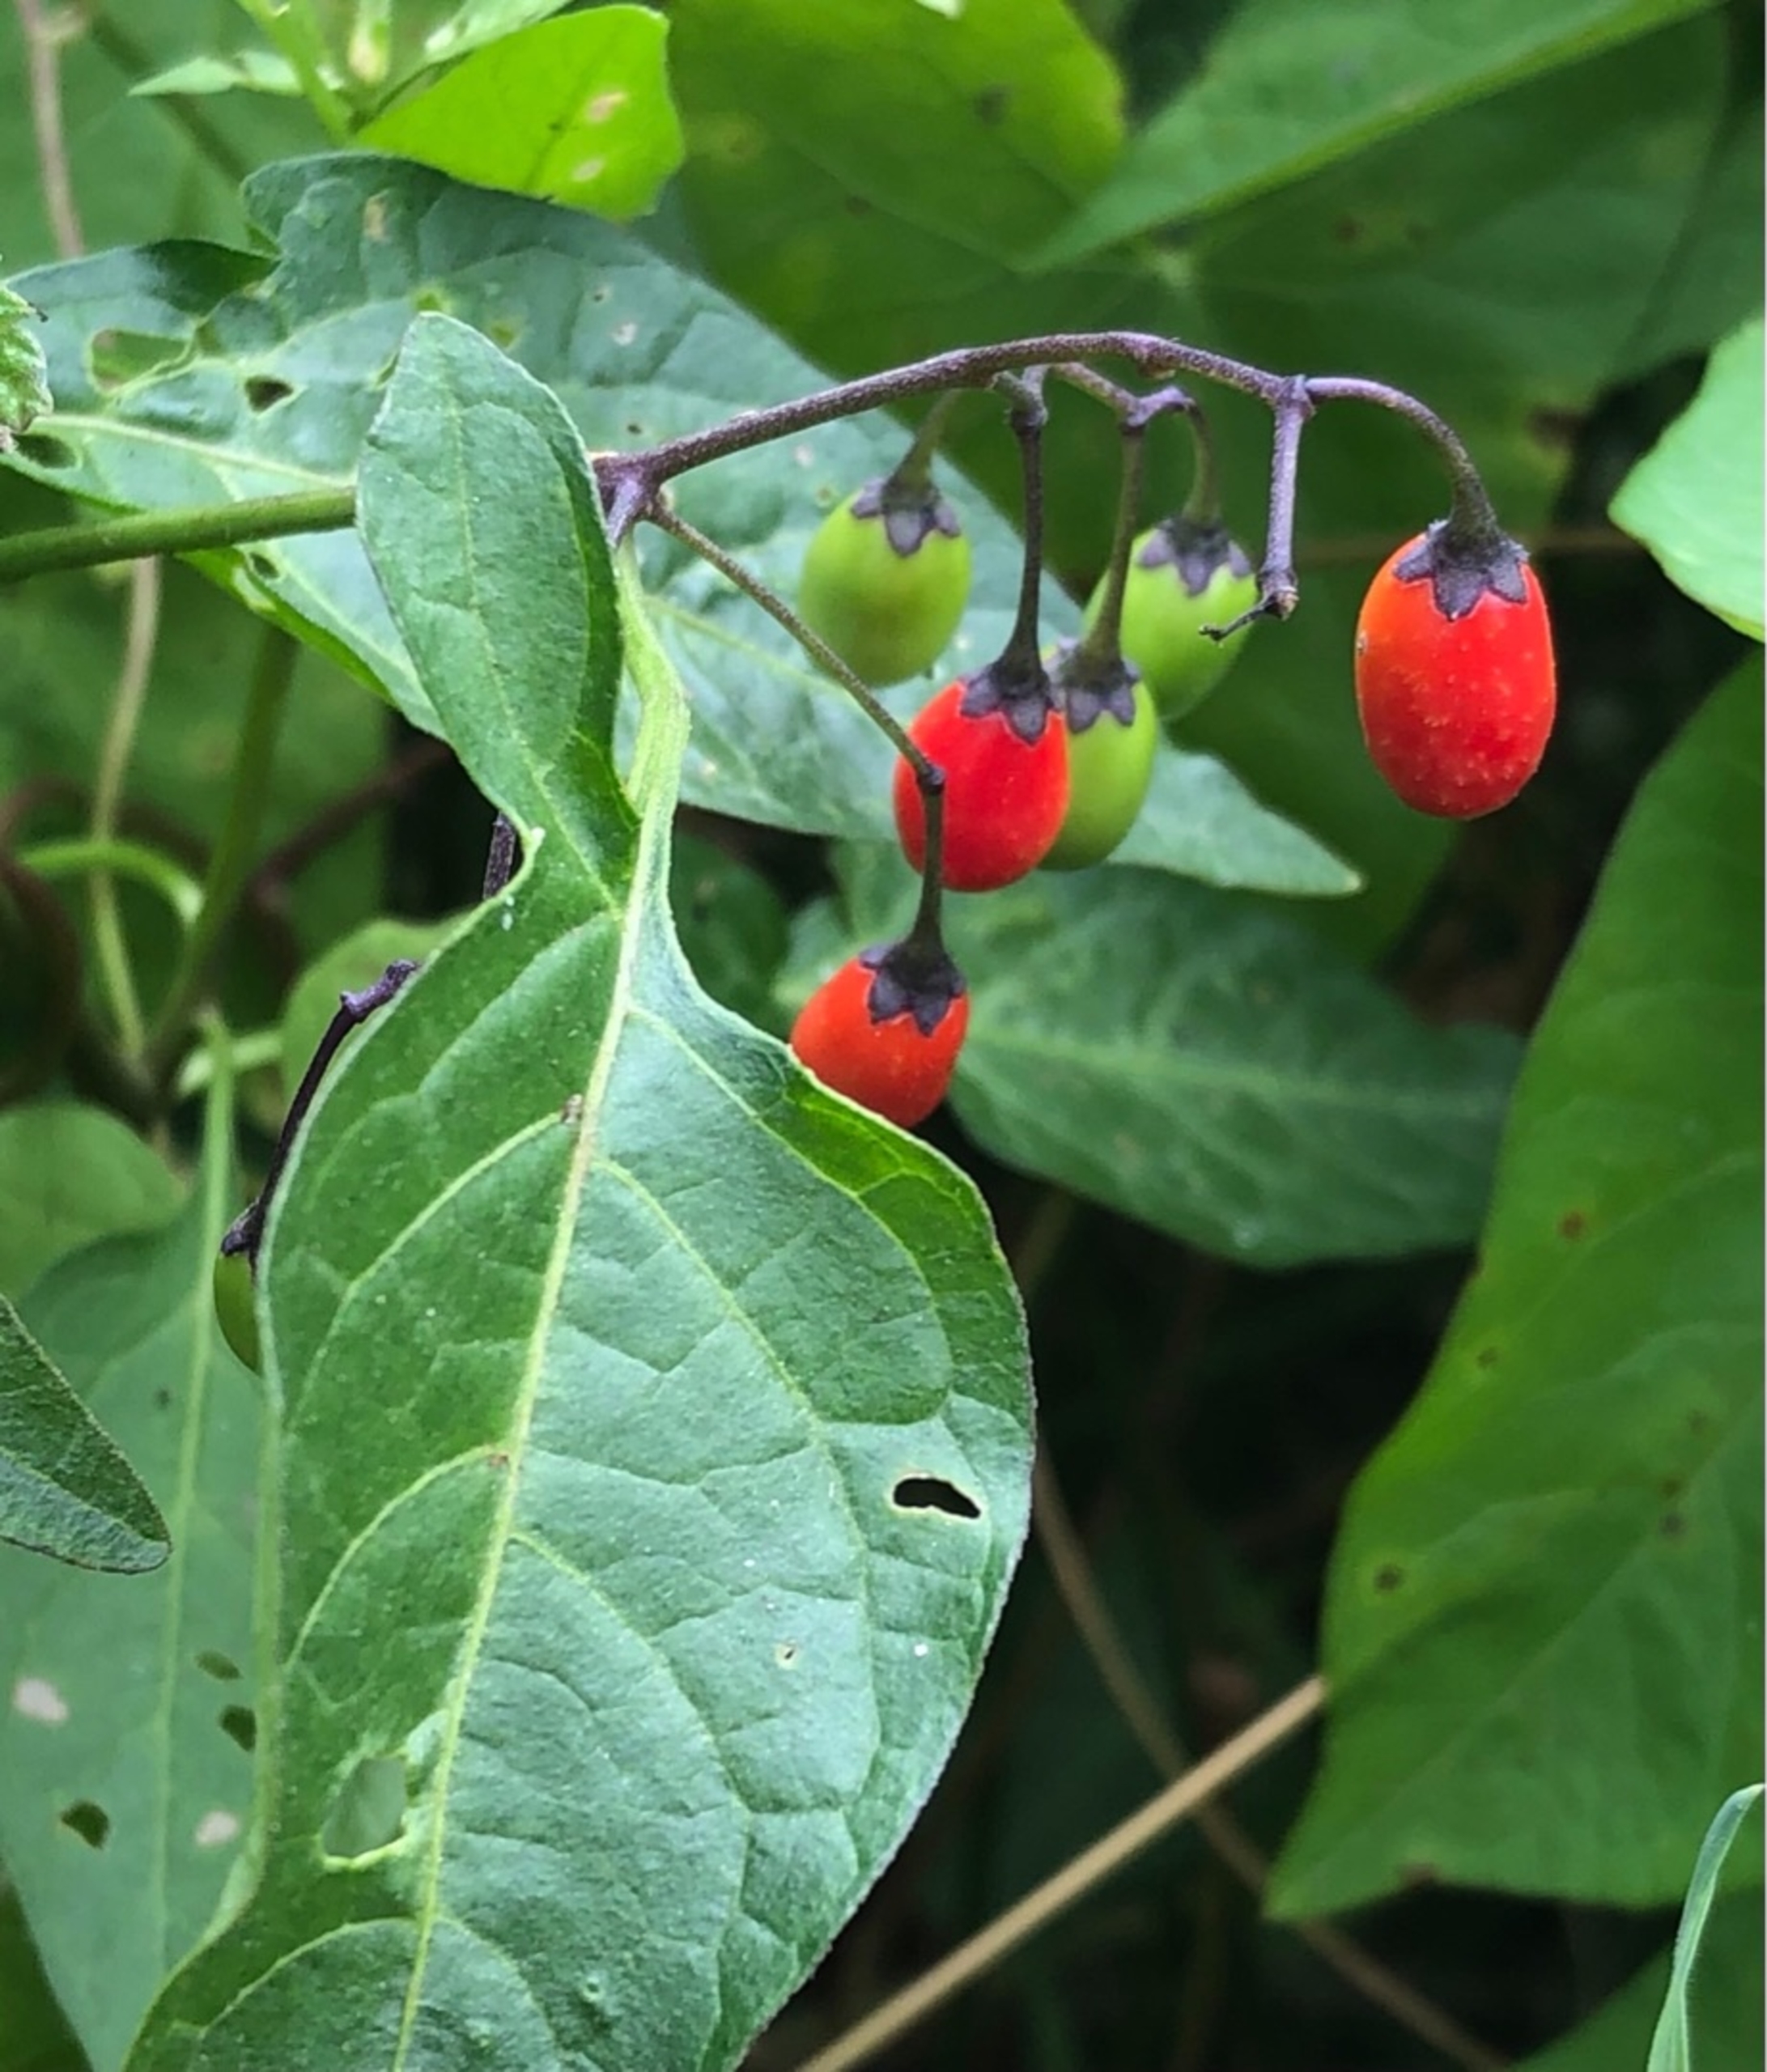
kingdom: Plantae
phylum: Tracheophyta
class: Magnoliopsida
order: Solanales
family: Solanaceae
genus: Solanum
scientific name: Solanum dulcamara
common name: Bittersød natskygge (varietet)
